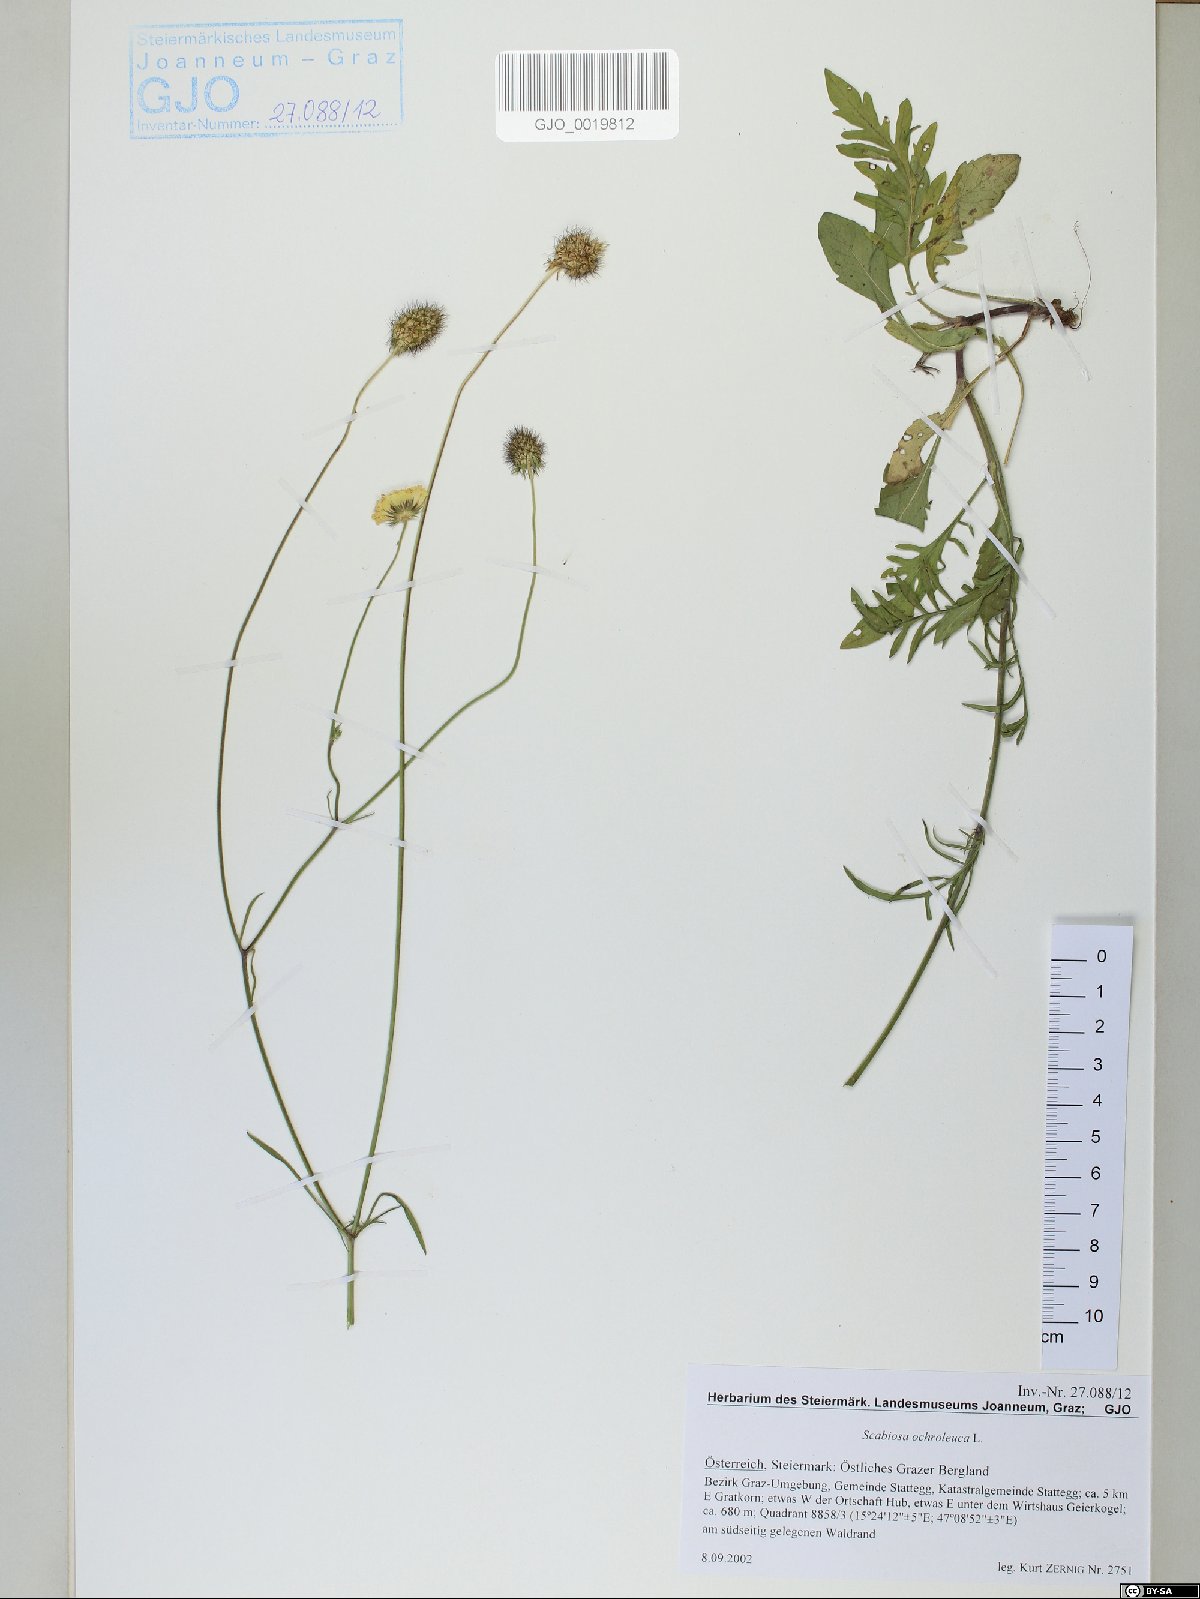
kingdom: Plantae
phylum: Tracheophyta
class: Magnoliopsida
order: Dipsacales
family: Caprifoliaceae
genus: Scabiosa
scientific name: Scabiosa ochroleuca
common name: Cream pincushions
